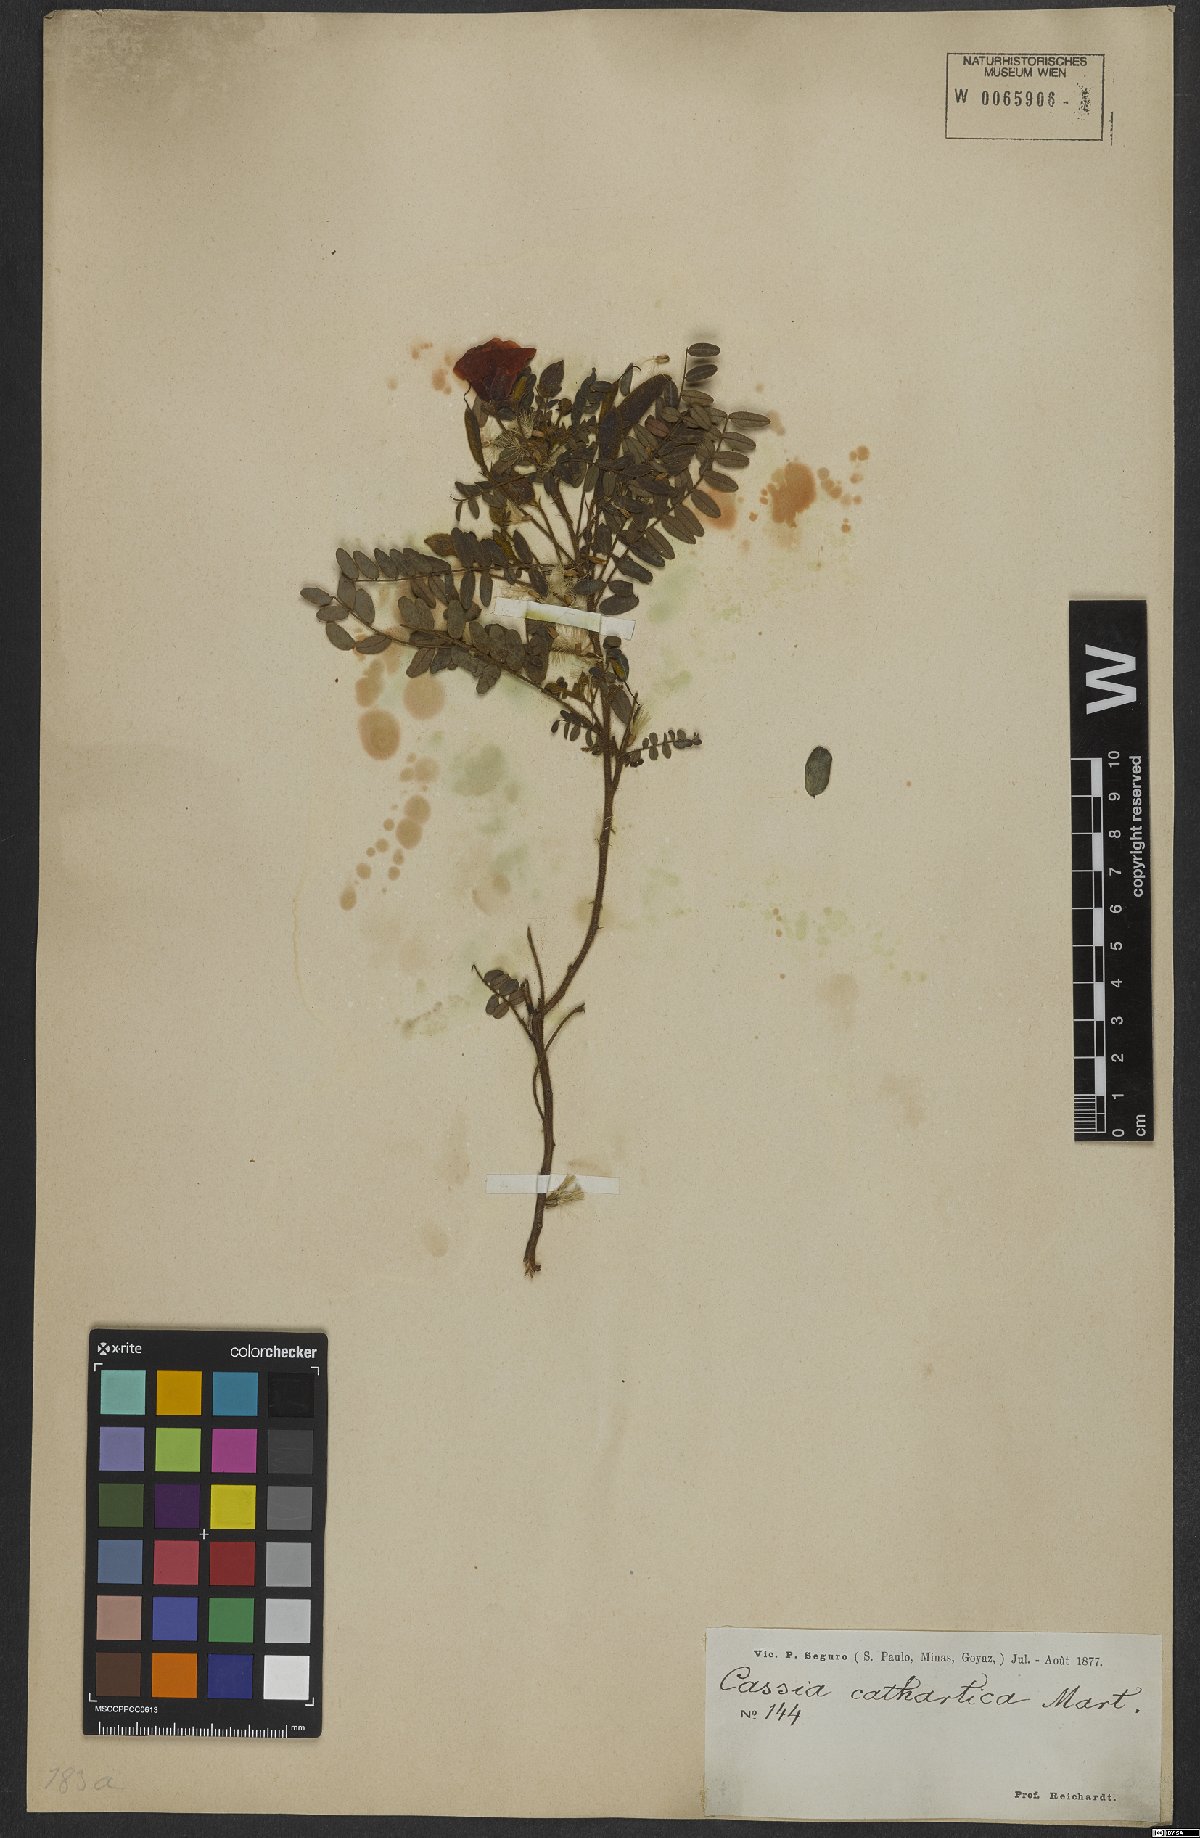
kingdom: Plantae
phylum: Tracheophyta
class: Magnoliopsida
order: Fabales
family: Fabaceae
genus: Chamaecrista
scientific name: Chamaecrista cathartica
